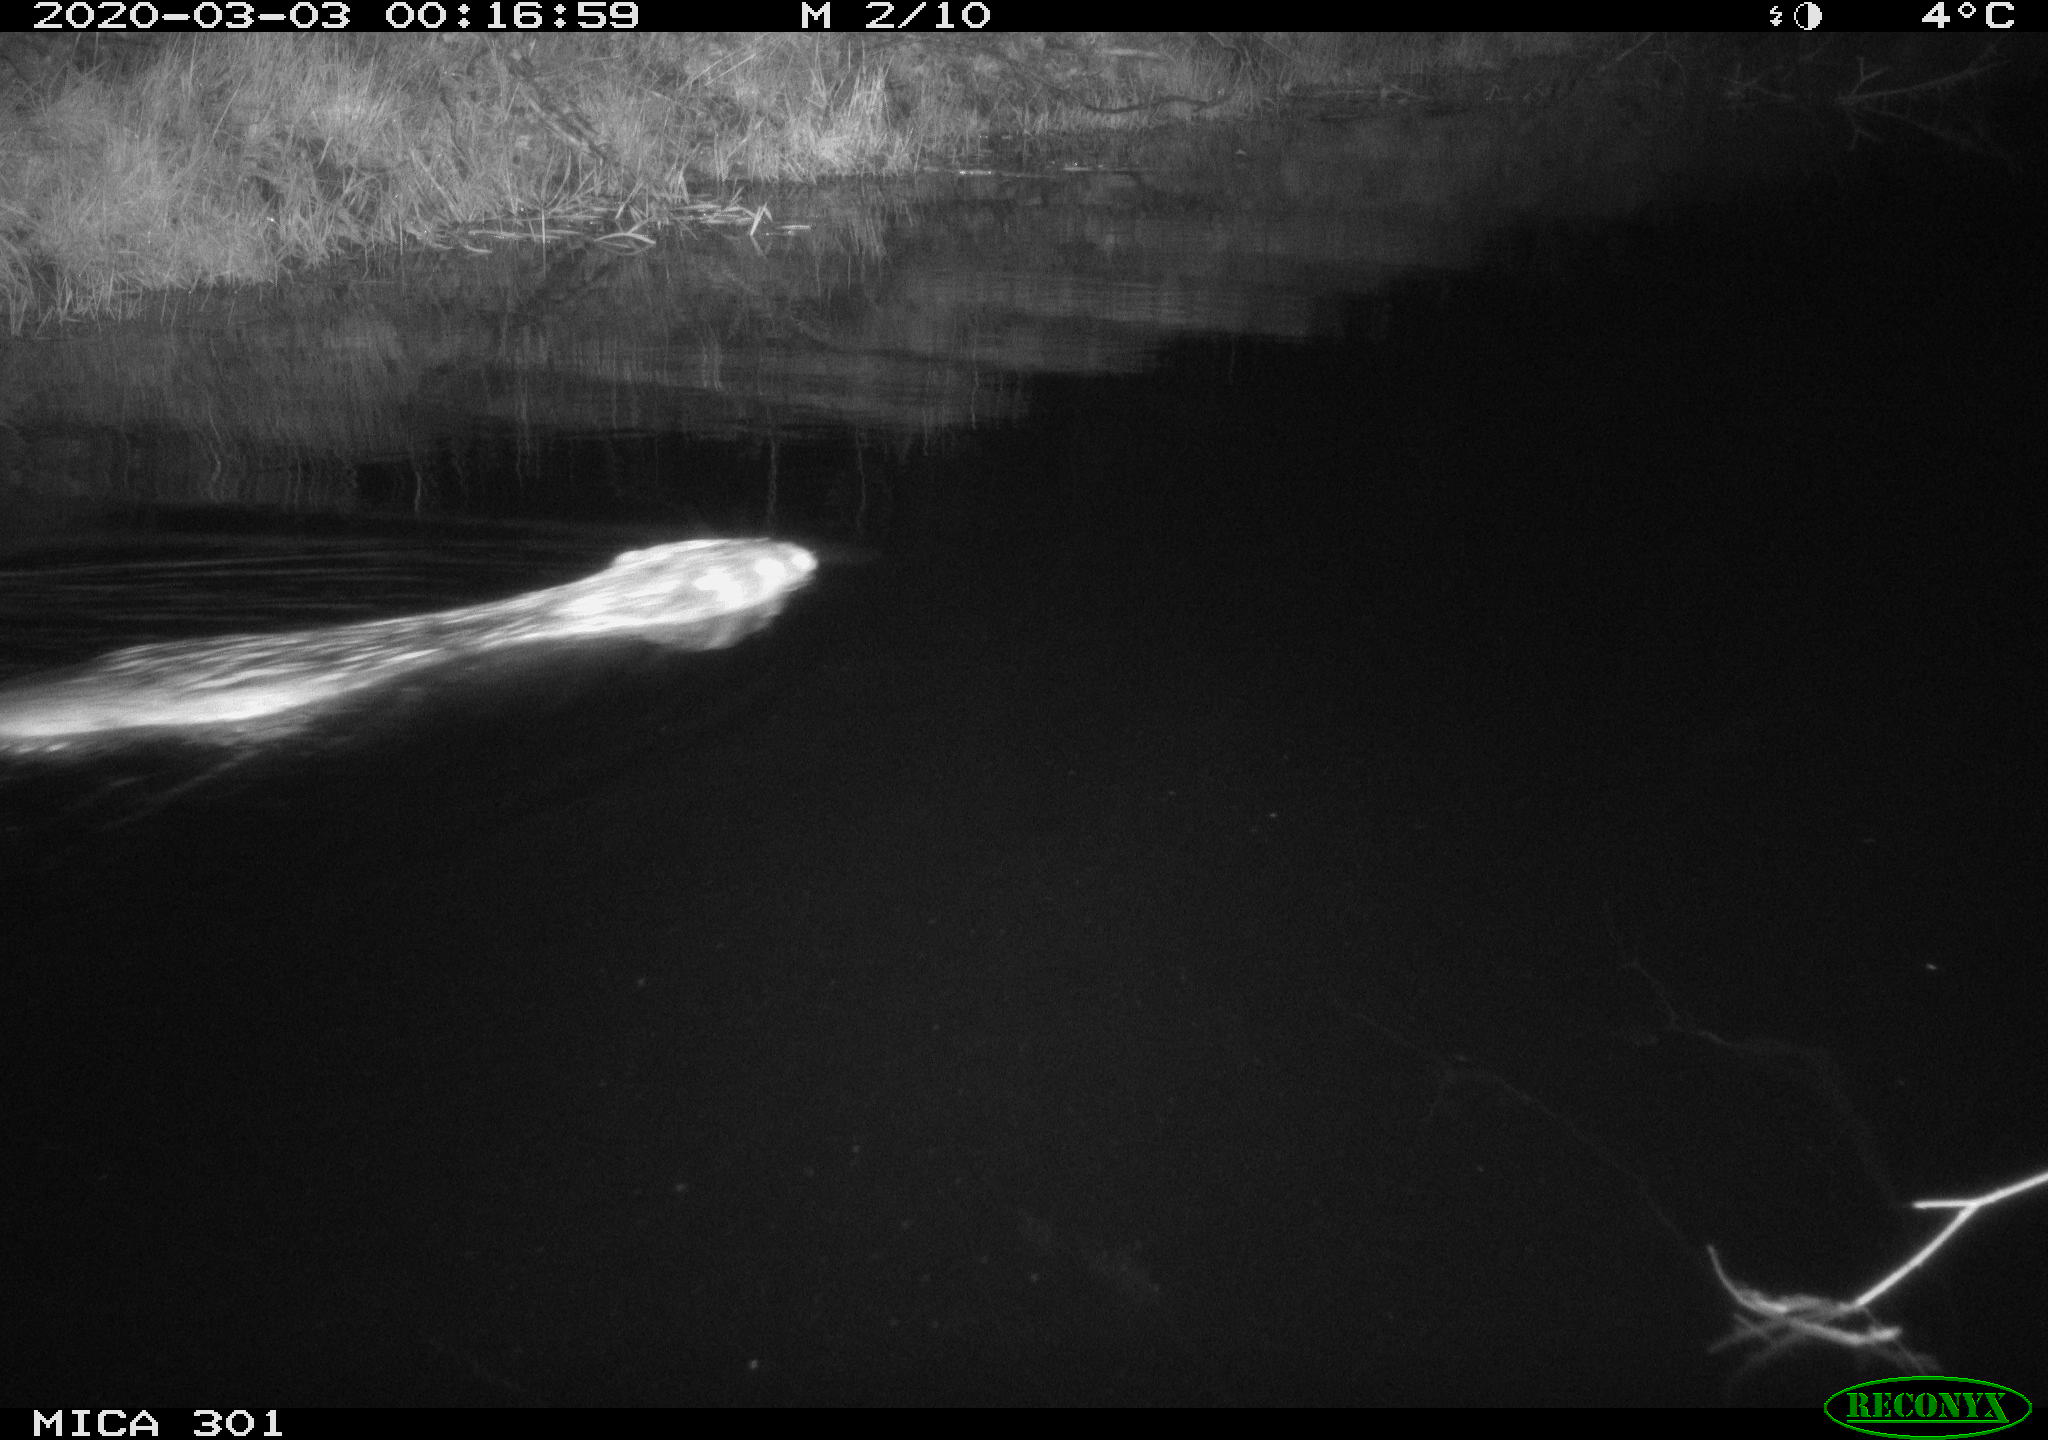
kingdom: Animalia
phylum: Chordata
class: Mammalia
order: Rodentia
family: Castoridae
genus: Castor
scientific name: Castor fiber
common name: Eurasian beaver
